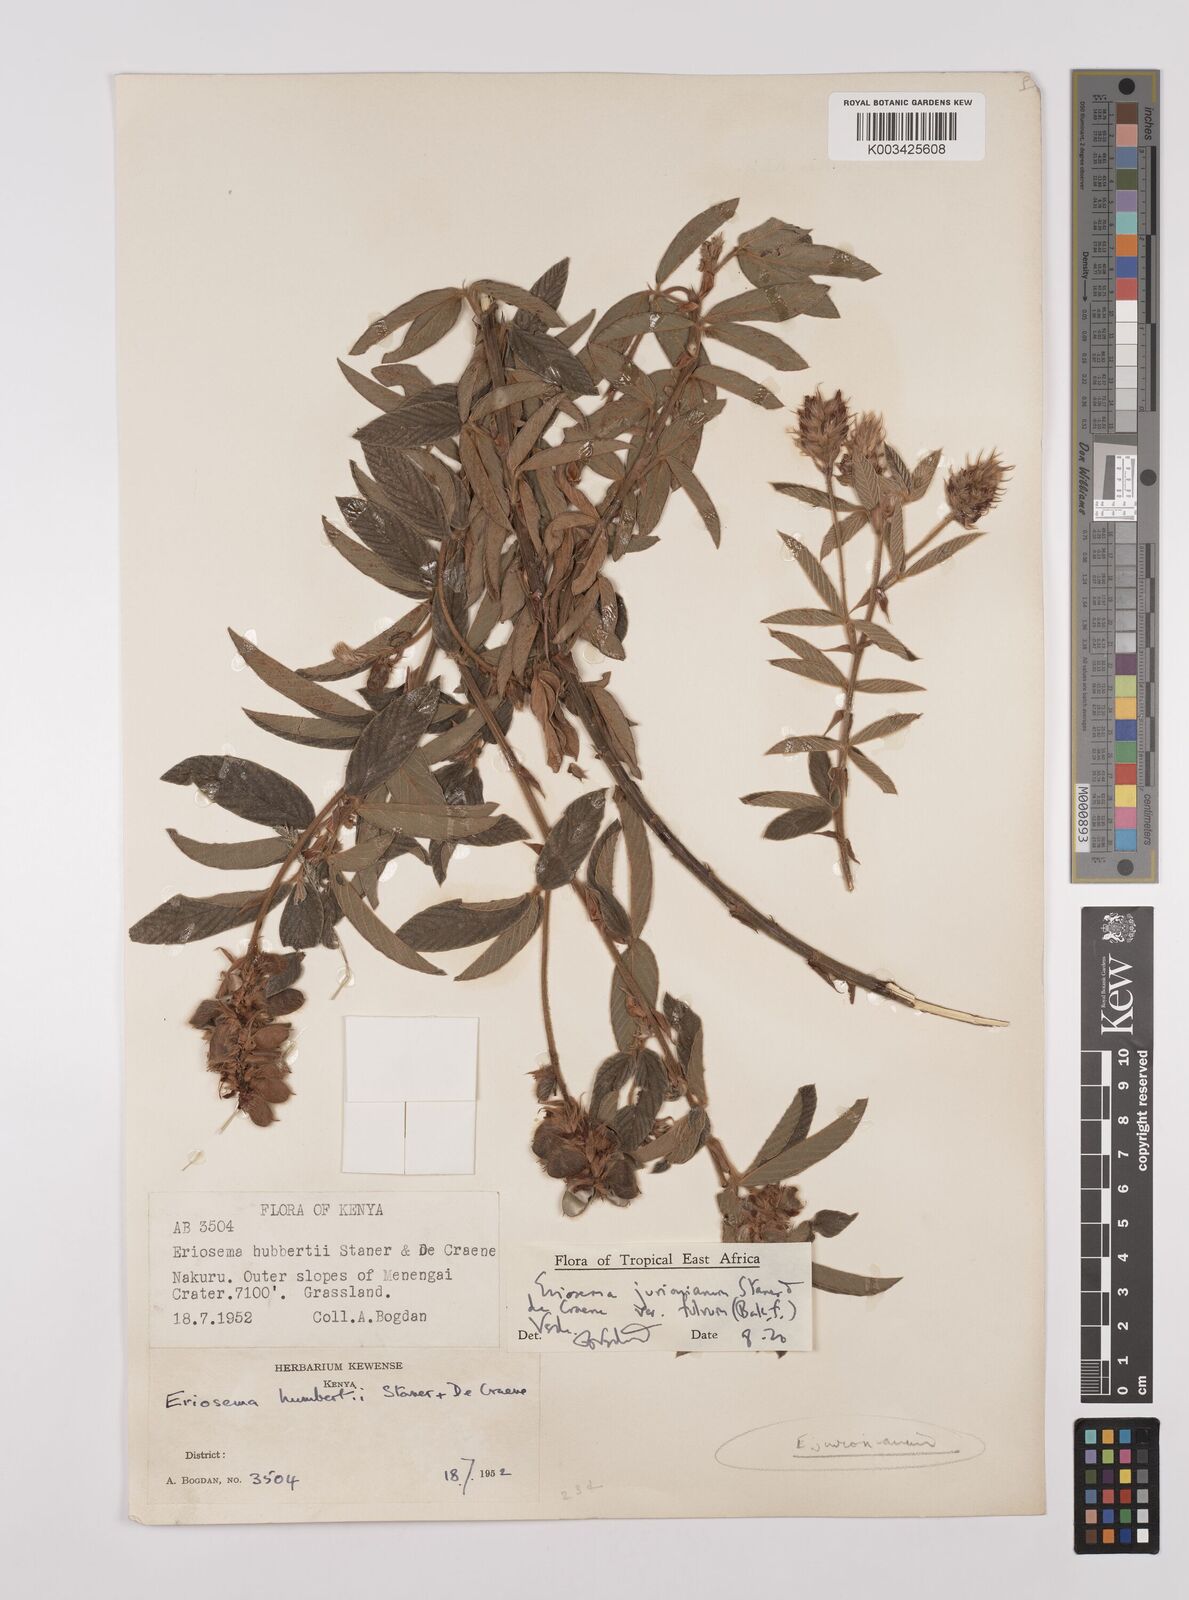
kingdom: Plantae
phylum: Tracheophyta
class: Magnoliopsida
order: Fabales
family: Fabaceae
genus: Eriosema
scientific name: Eriosema jurionianum
